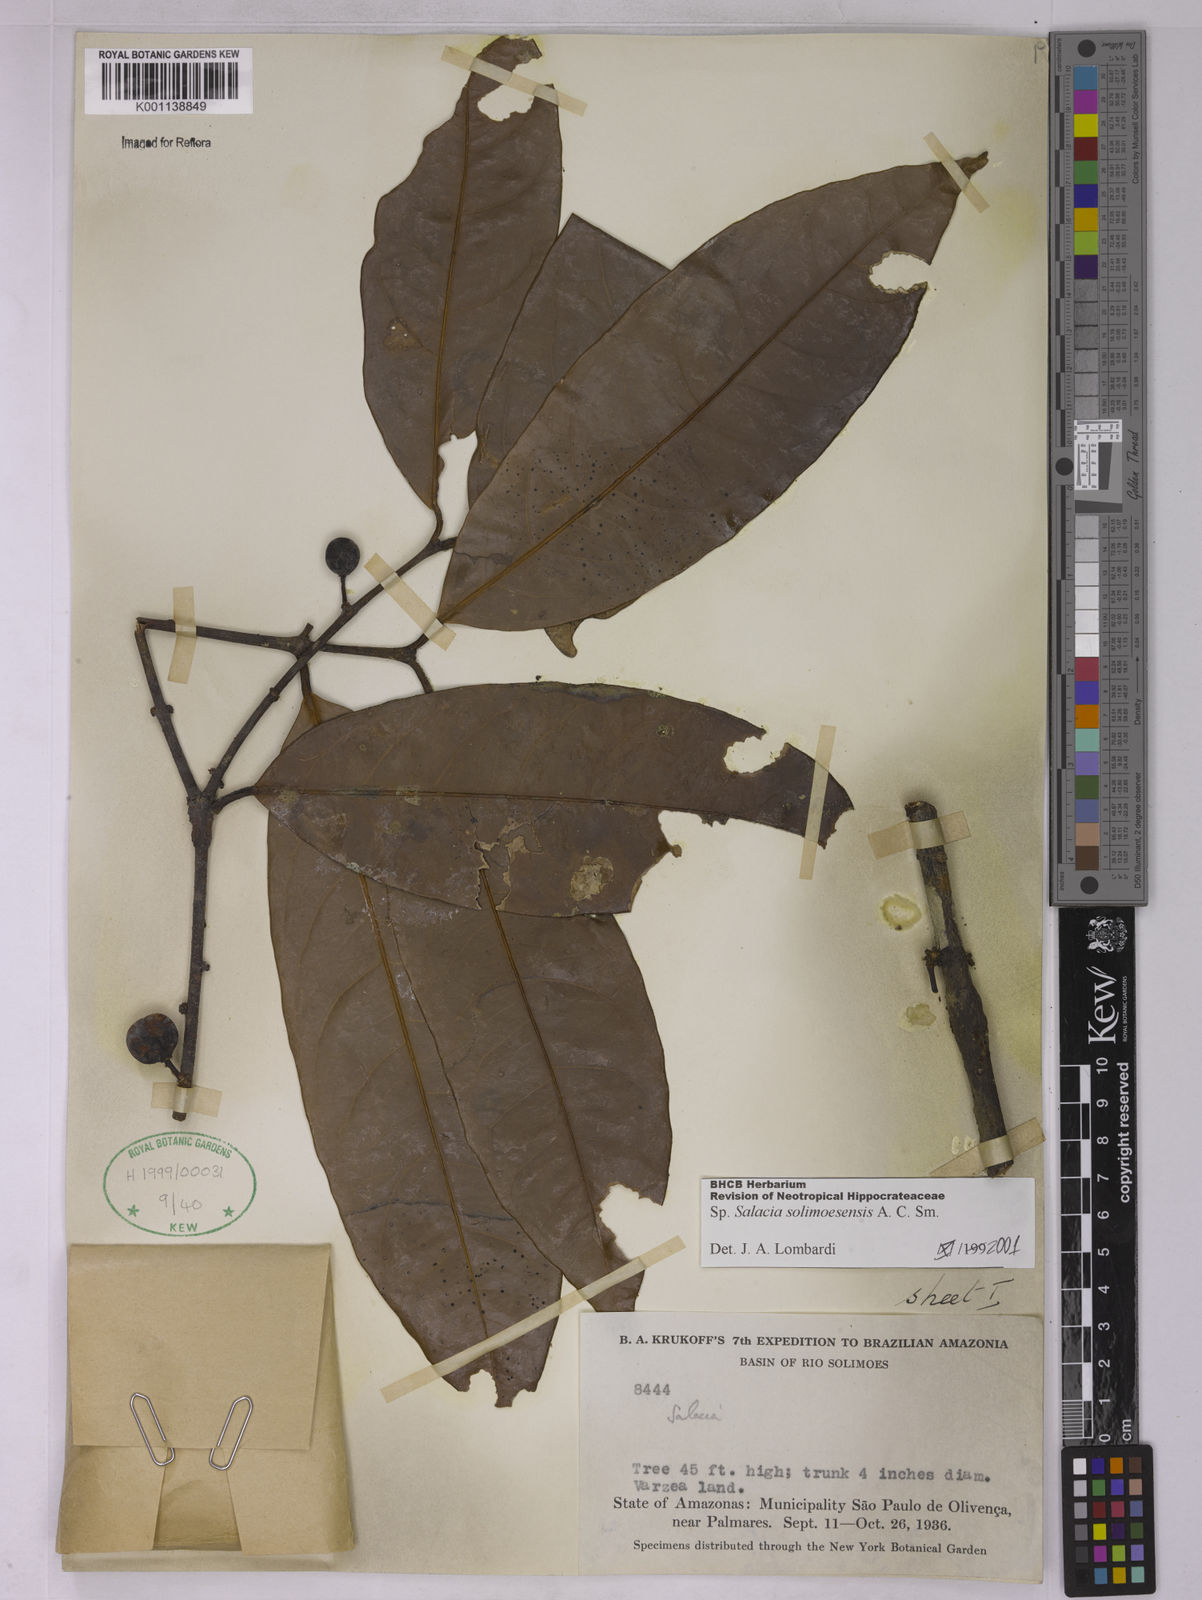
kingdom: Plantae
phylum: Tracheophyta
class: Magnoliopsida
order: Celastrales
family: Celastraceae
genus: Salacia
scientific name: Salacia solimoesensis
